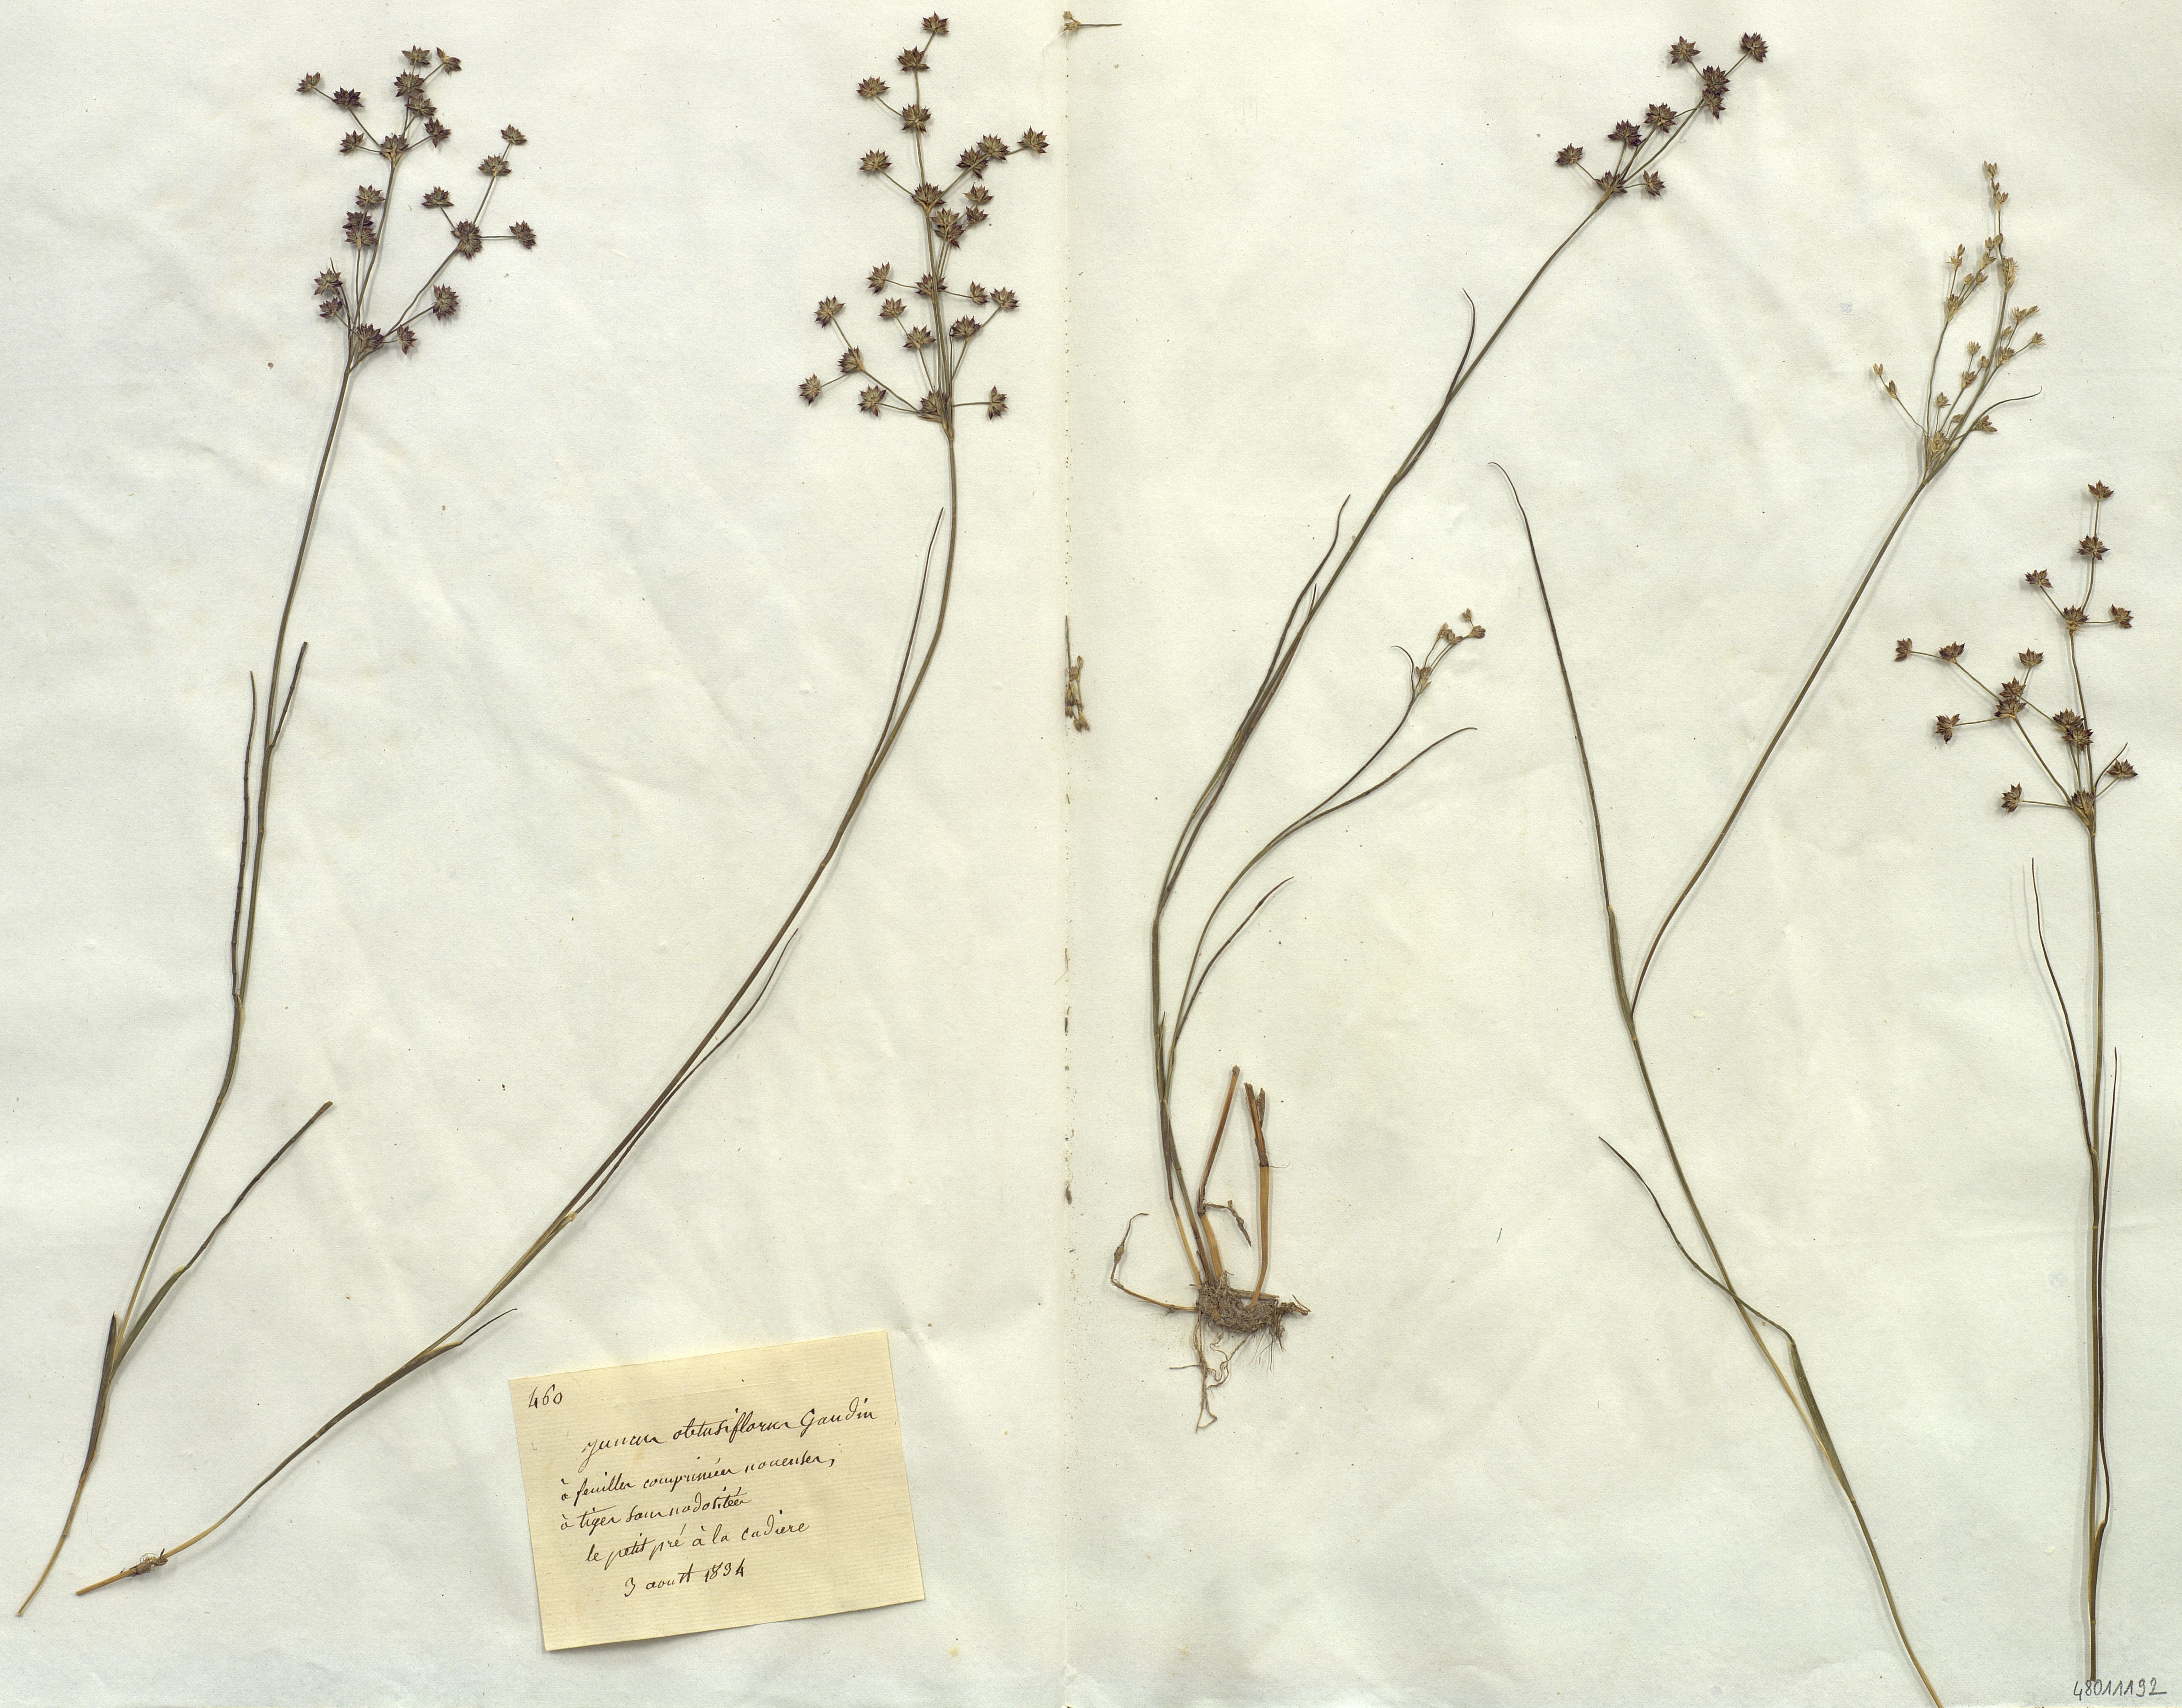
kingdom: Plantae
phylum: Tracheophyta
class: Liliopsida
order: Poales
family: Juncaceae
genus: Juncus
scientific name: Juncus obtusiflorus
